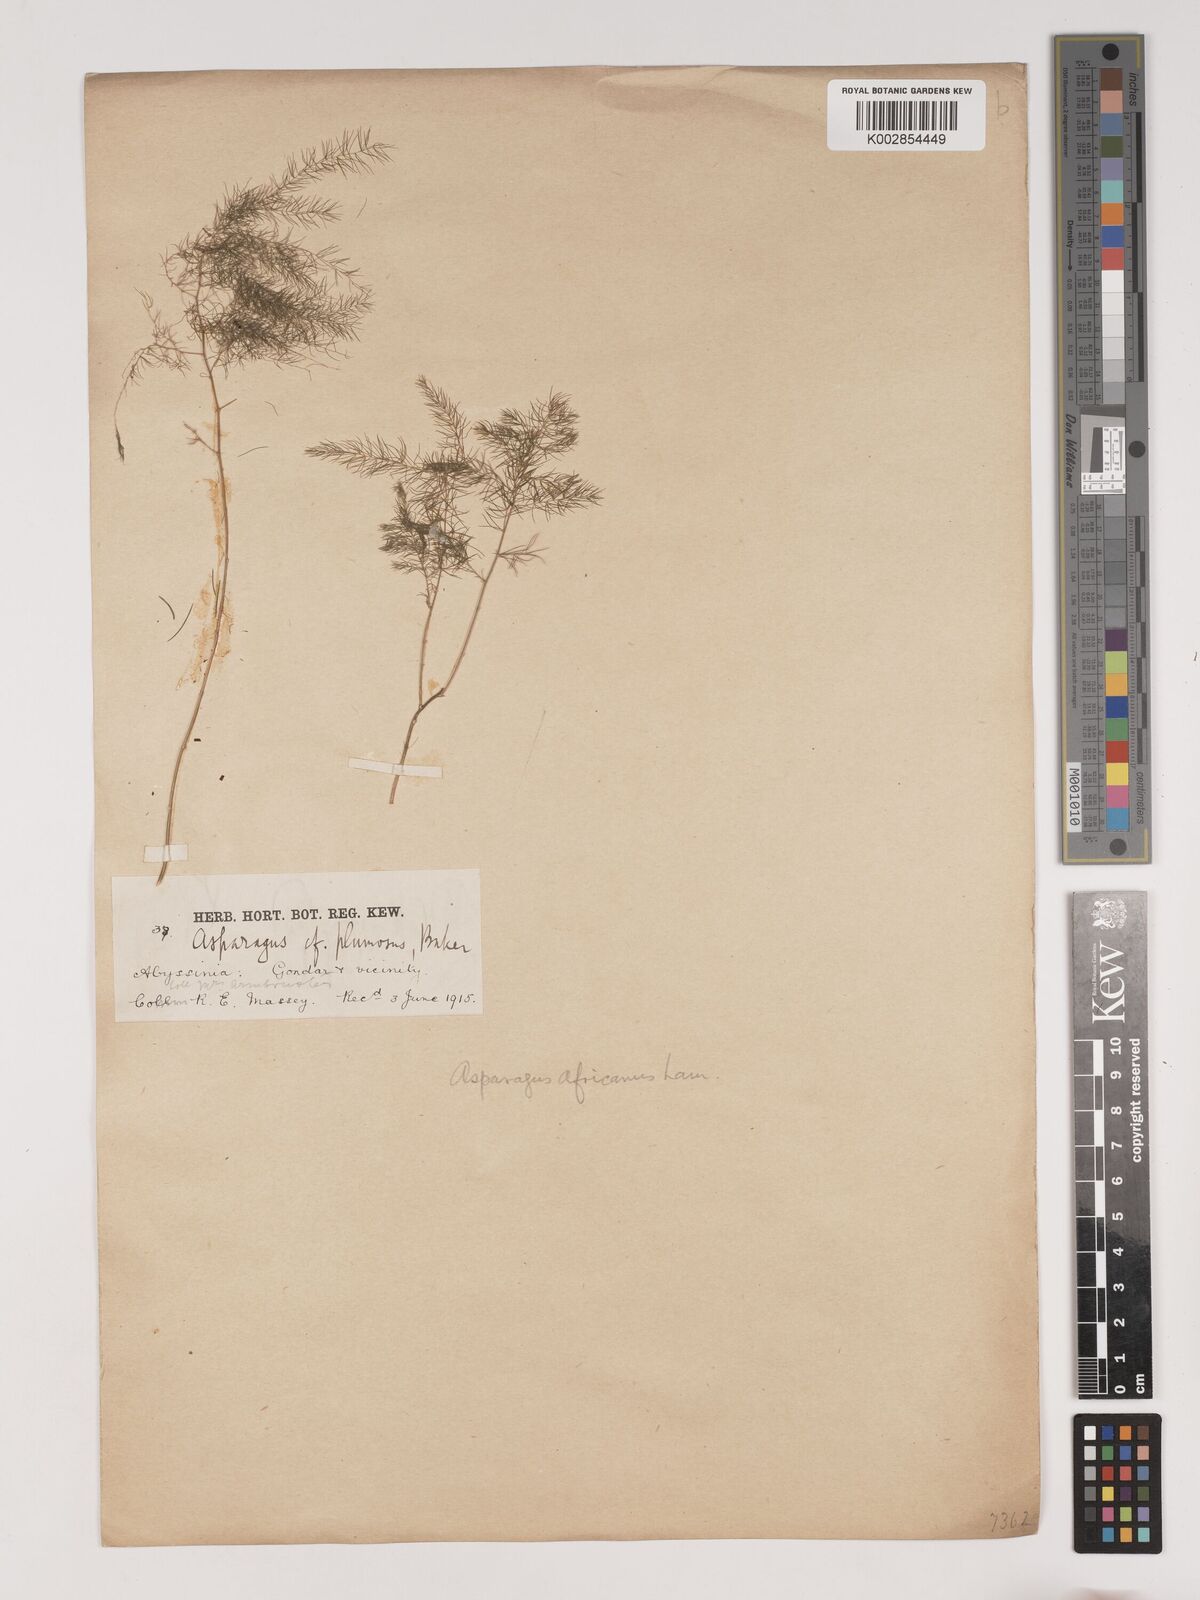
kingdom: Plantae
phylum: Tracheophyta
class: Liliopsida
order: Asparagales
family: Asparagaceae
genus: Asparagus
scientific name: Asparagus
